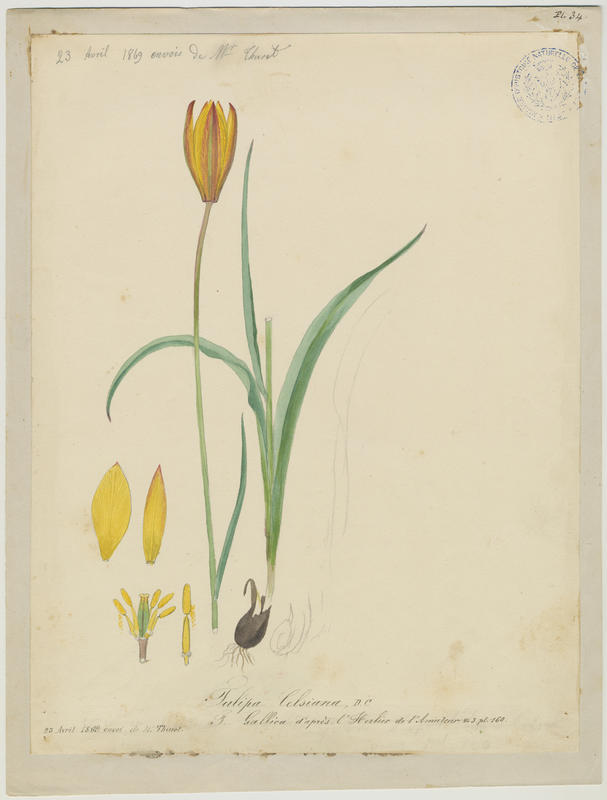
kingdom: Plantae
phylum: Tracheophyta
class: Liliopsida
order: Liliales
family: Liliaceae
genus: Tulipa
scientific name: Tulipa sylvestris
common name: Wild tulip
